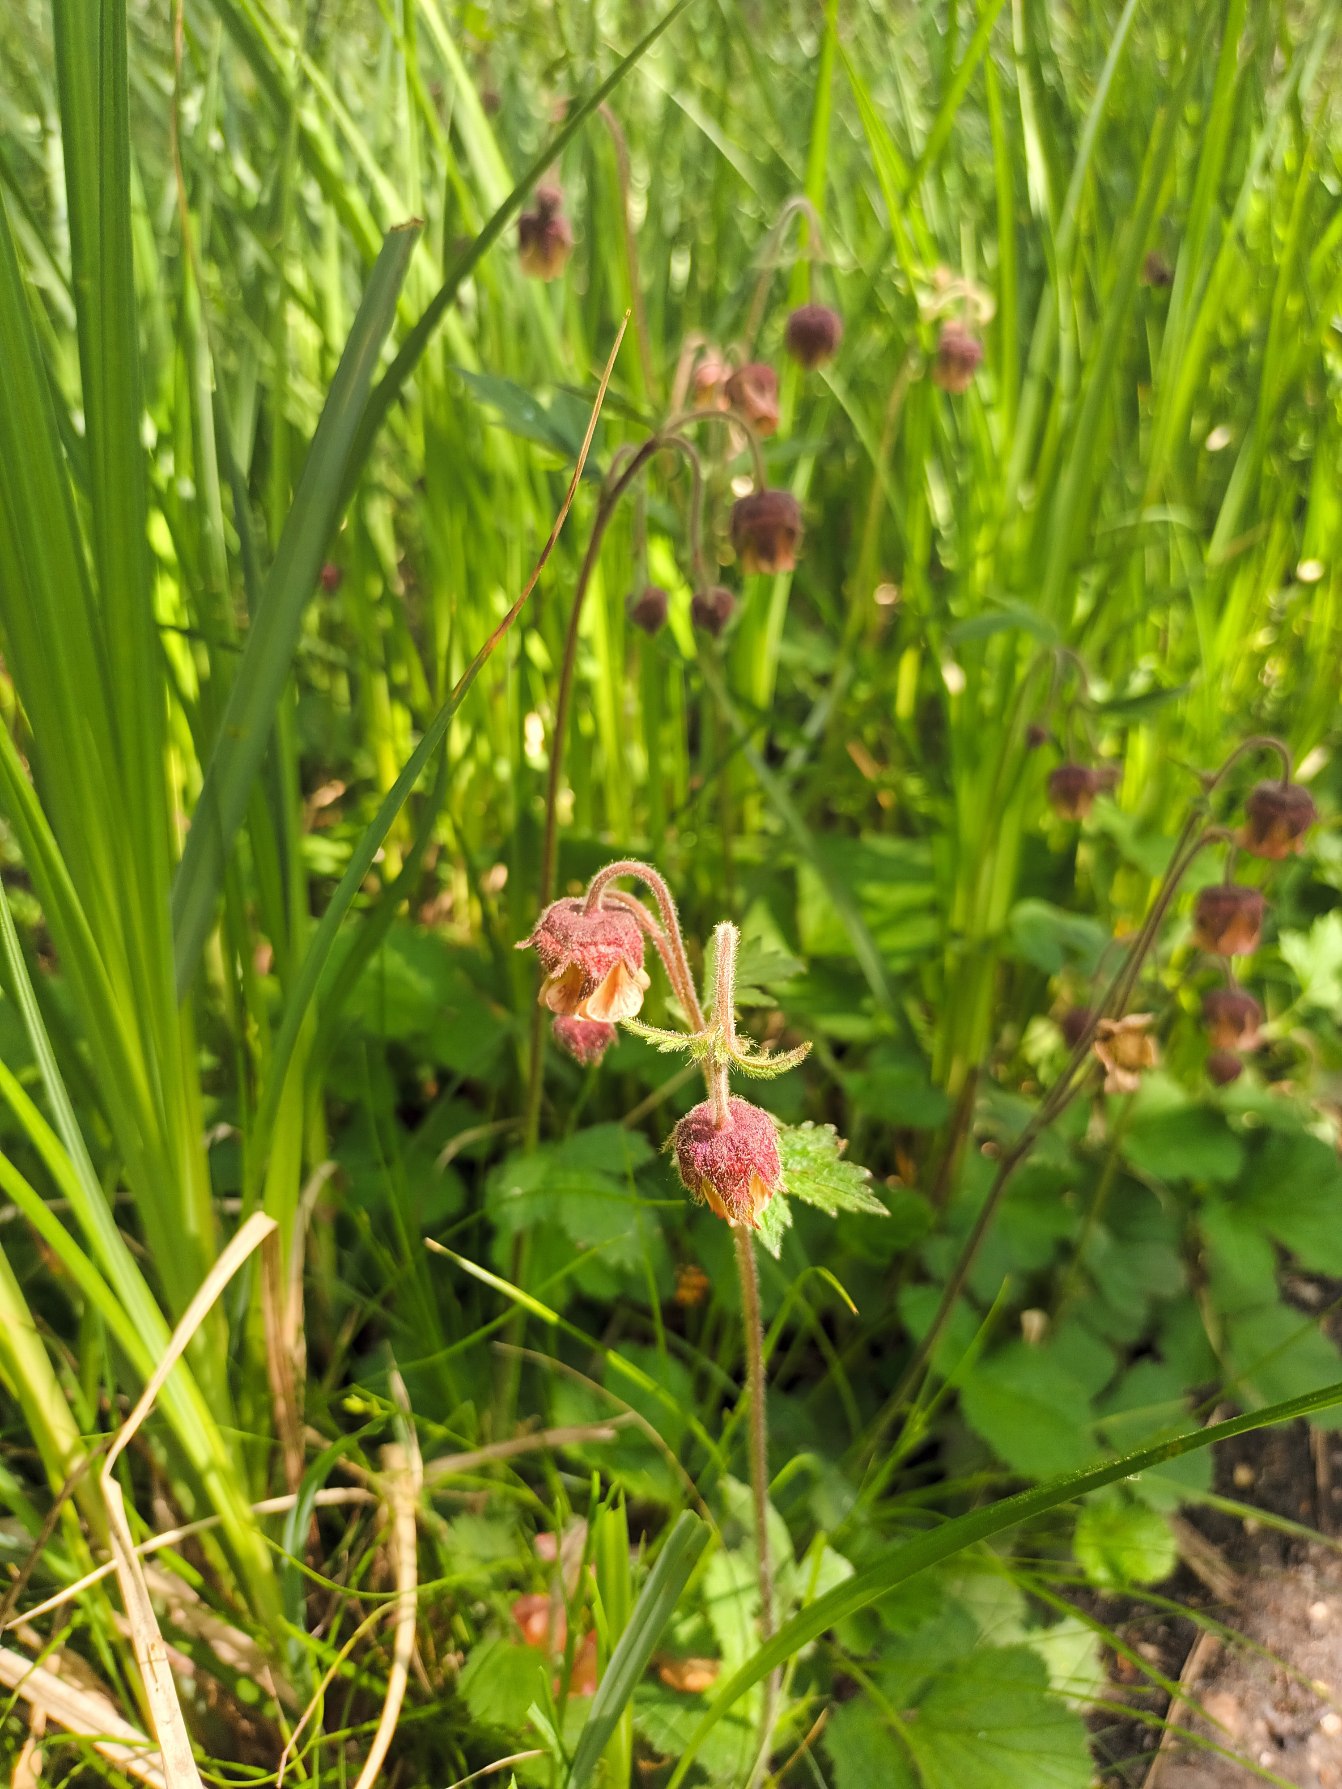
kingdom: Plantae
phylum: Tracheophyta
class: Magnoliopsida
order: Rosales
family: Rosaceae
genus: Geum
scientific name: Geum rivale
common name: Eng-nellikerod
